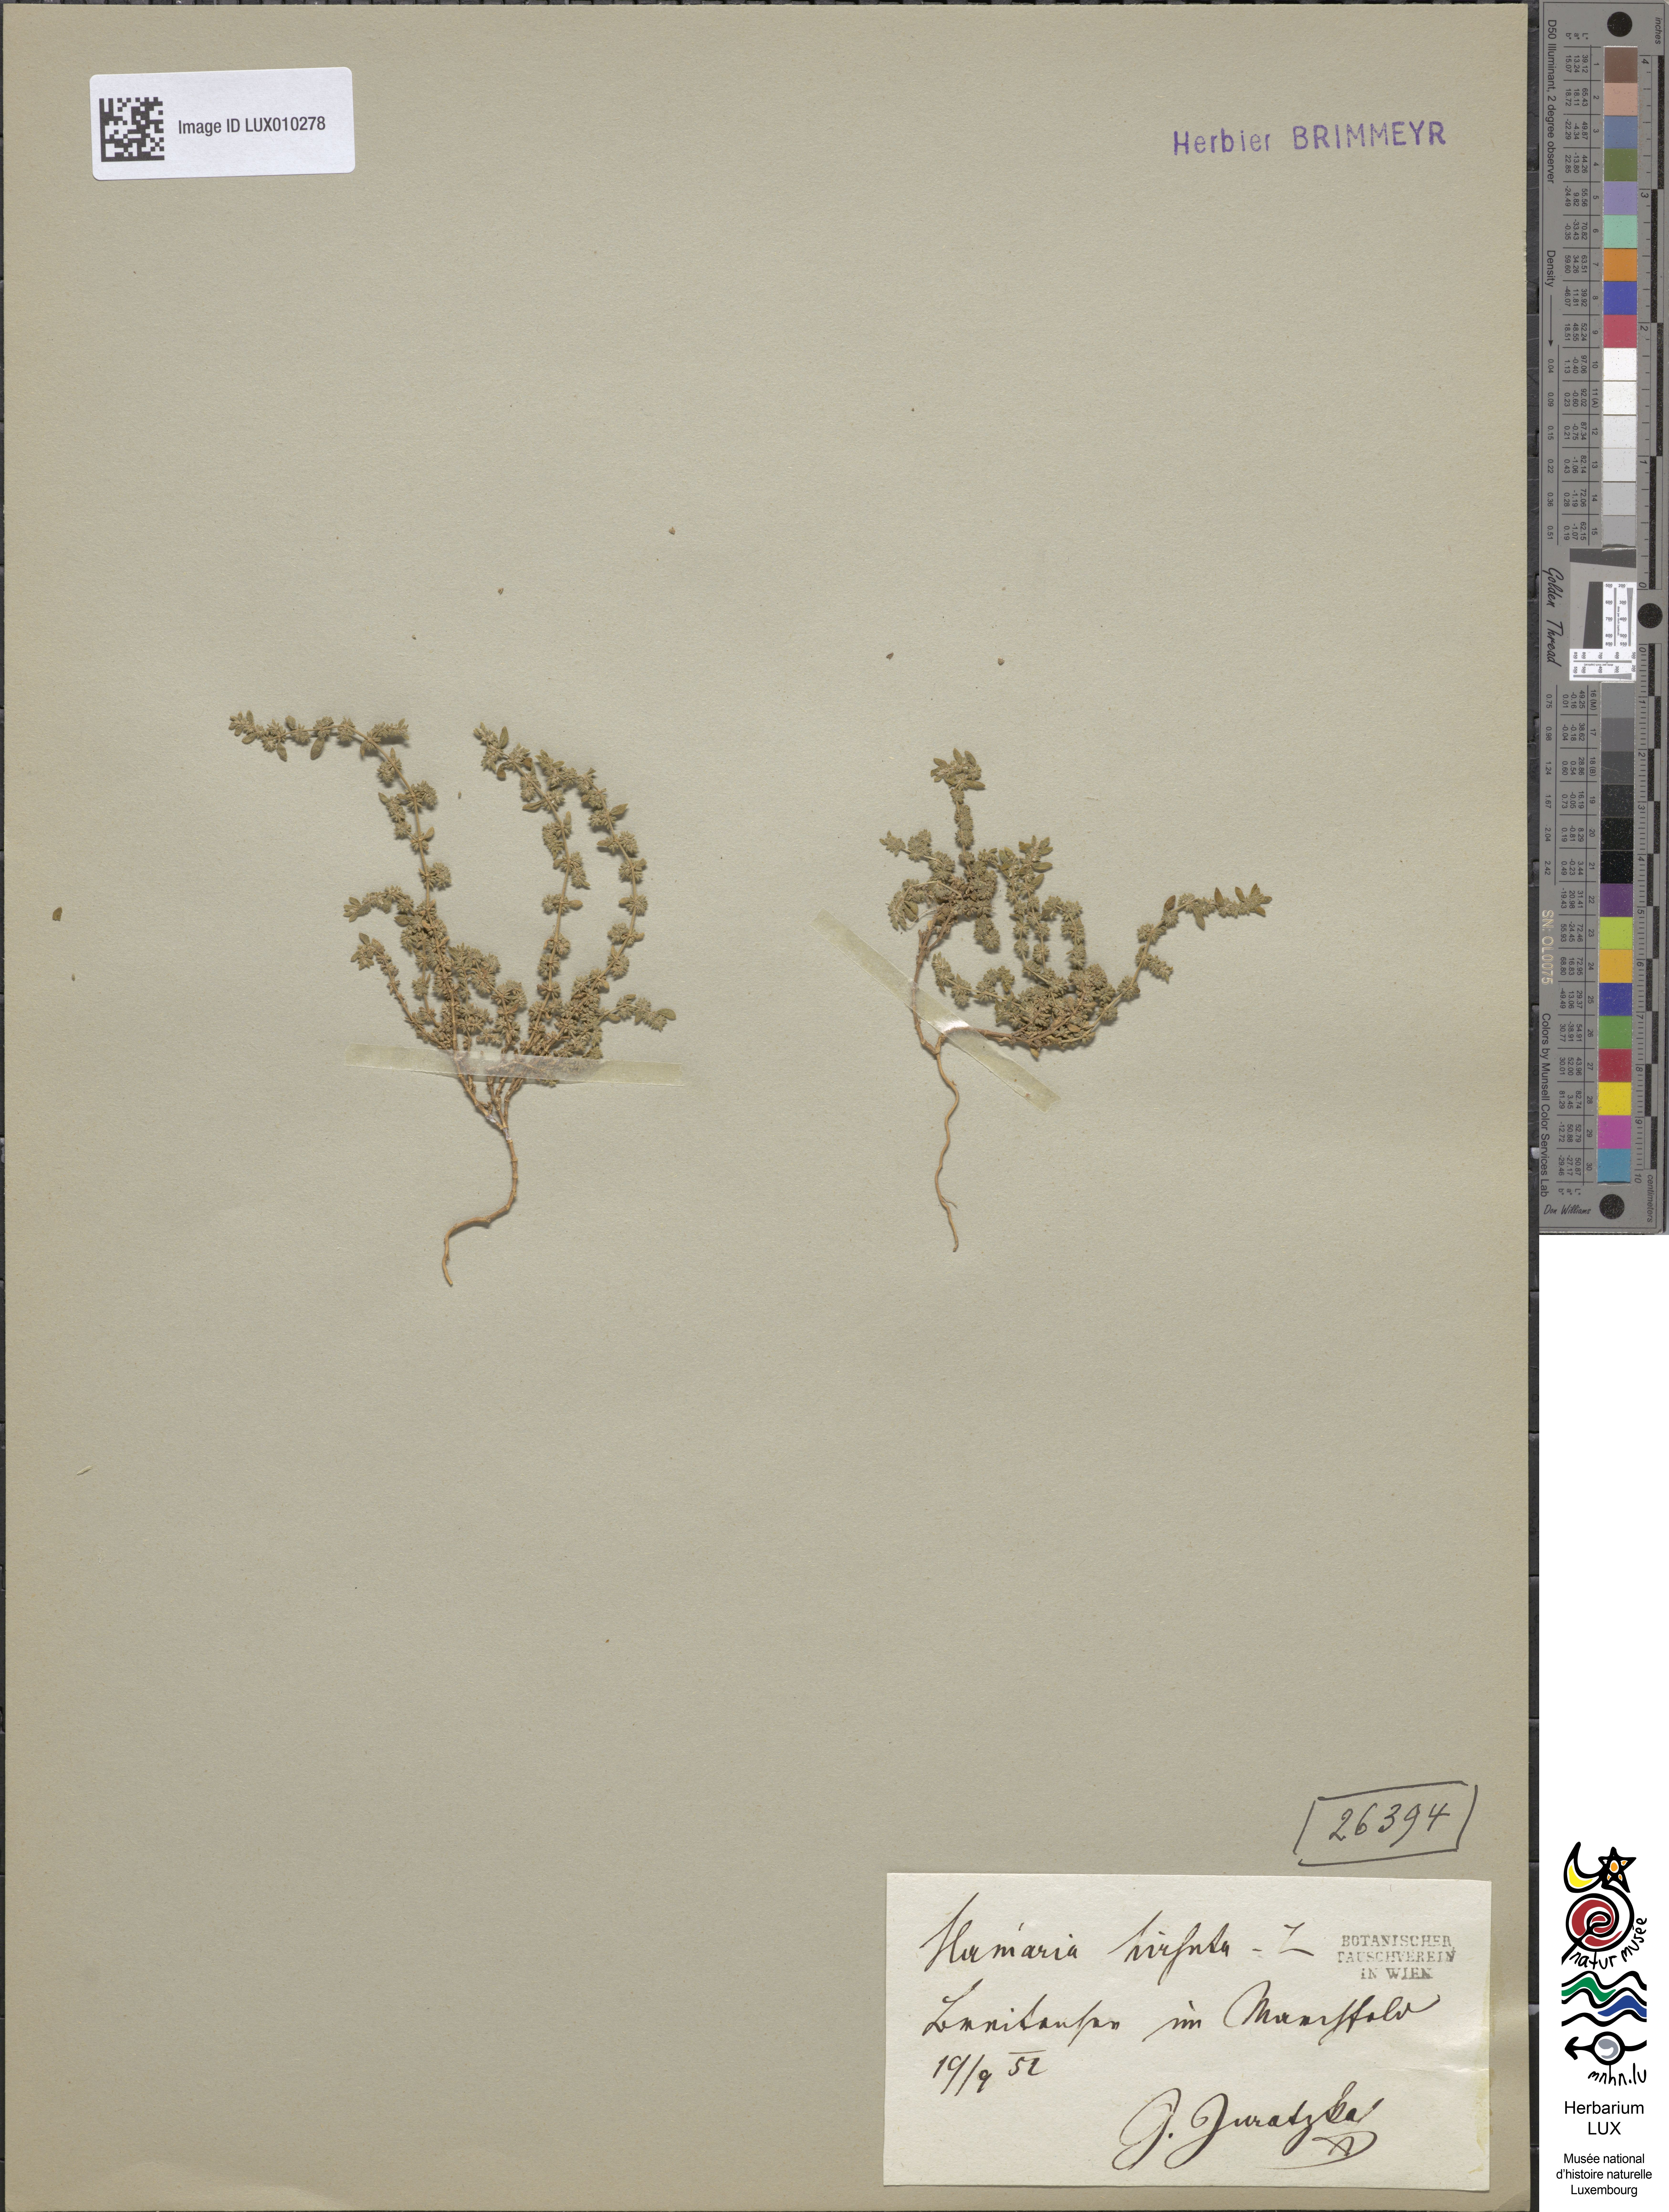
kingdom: Plantae
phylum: Tracheophyta
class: Magnoliopsida
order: Caryophyllales
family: Caryophyllaceae
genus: Herniaria
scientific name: Herniaria hirsuta
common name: Hairy rupturewort
